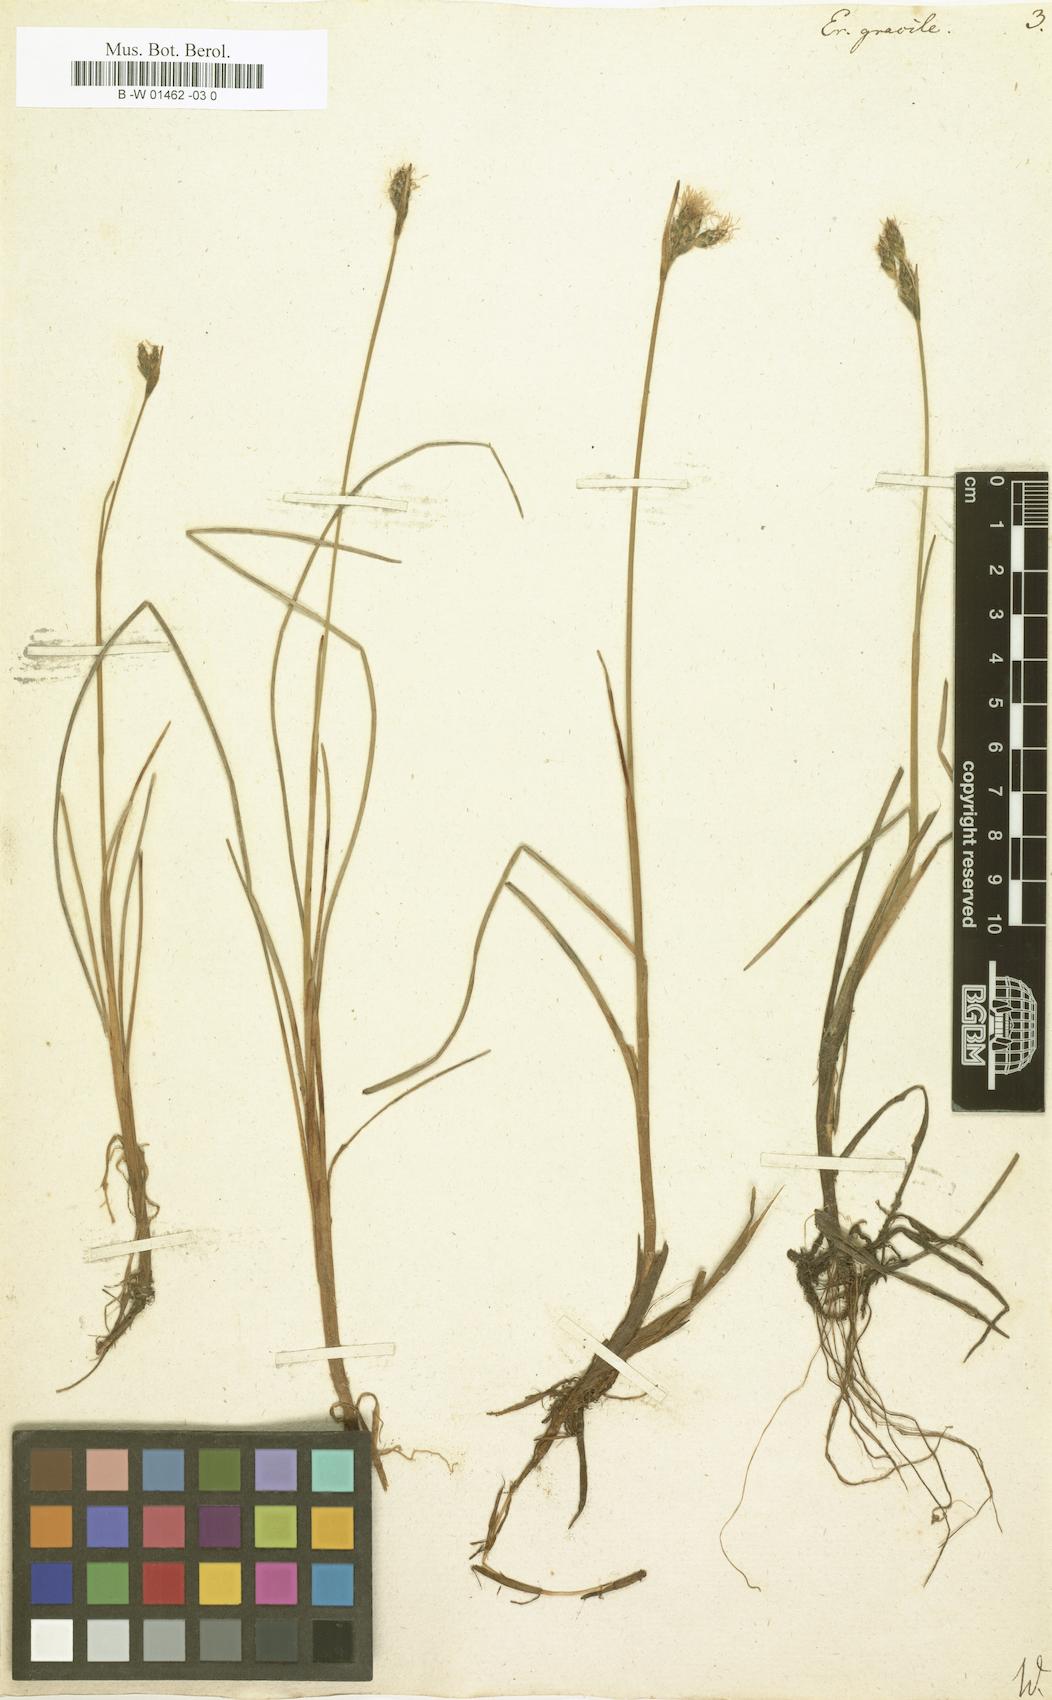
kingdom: Plantae
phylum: Tracheophyta
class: Liliopsida
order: Poales
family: Cyperaceae
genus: Eriophorum
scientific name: Eriophorum gracile
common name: Slender cottongrass
